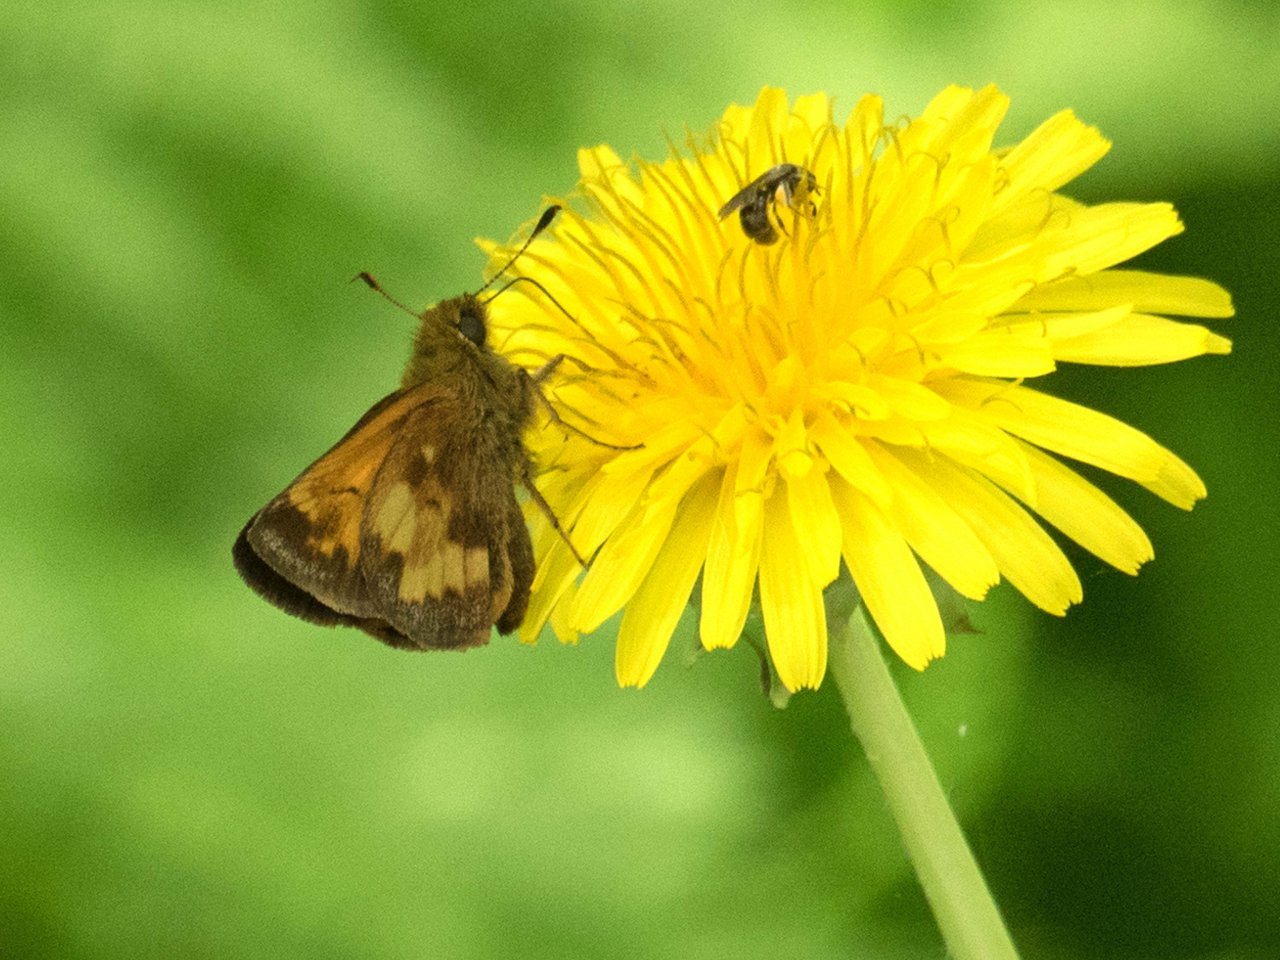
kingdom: Animalia
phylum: Arthropoda
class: Insecta
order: Lepidoptera
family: Hesperiidae
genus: Lon
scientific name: Lon hobomok
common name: Hobomok Skipper
